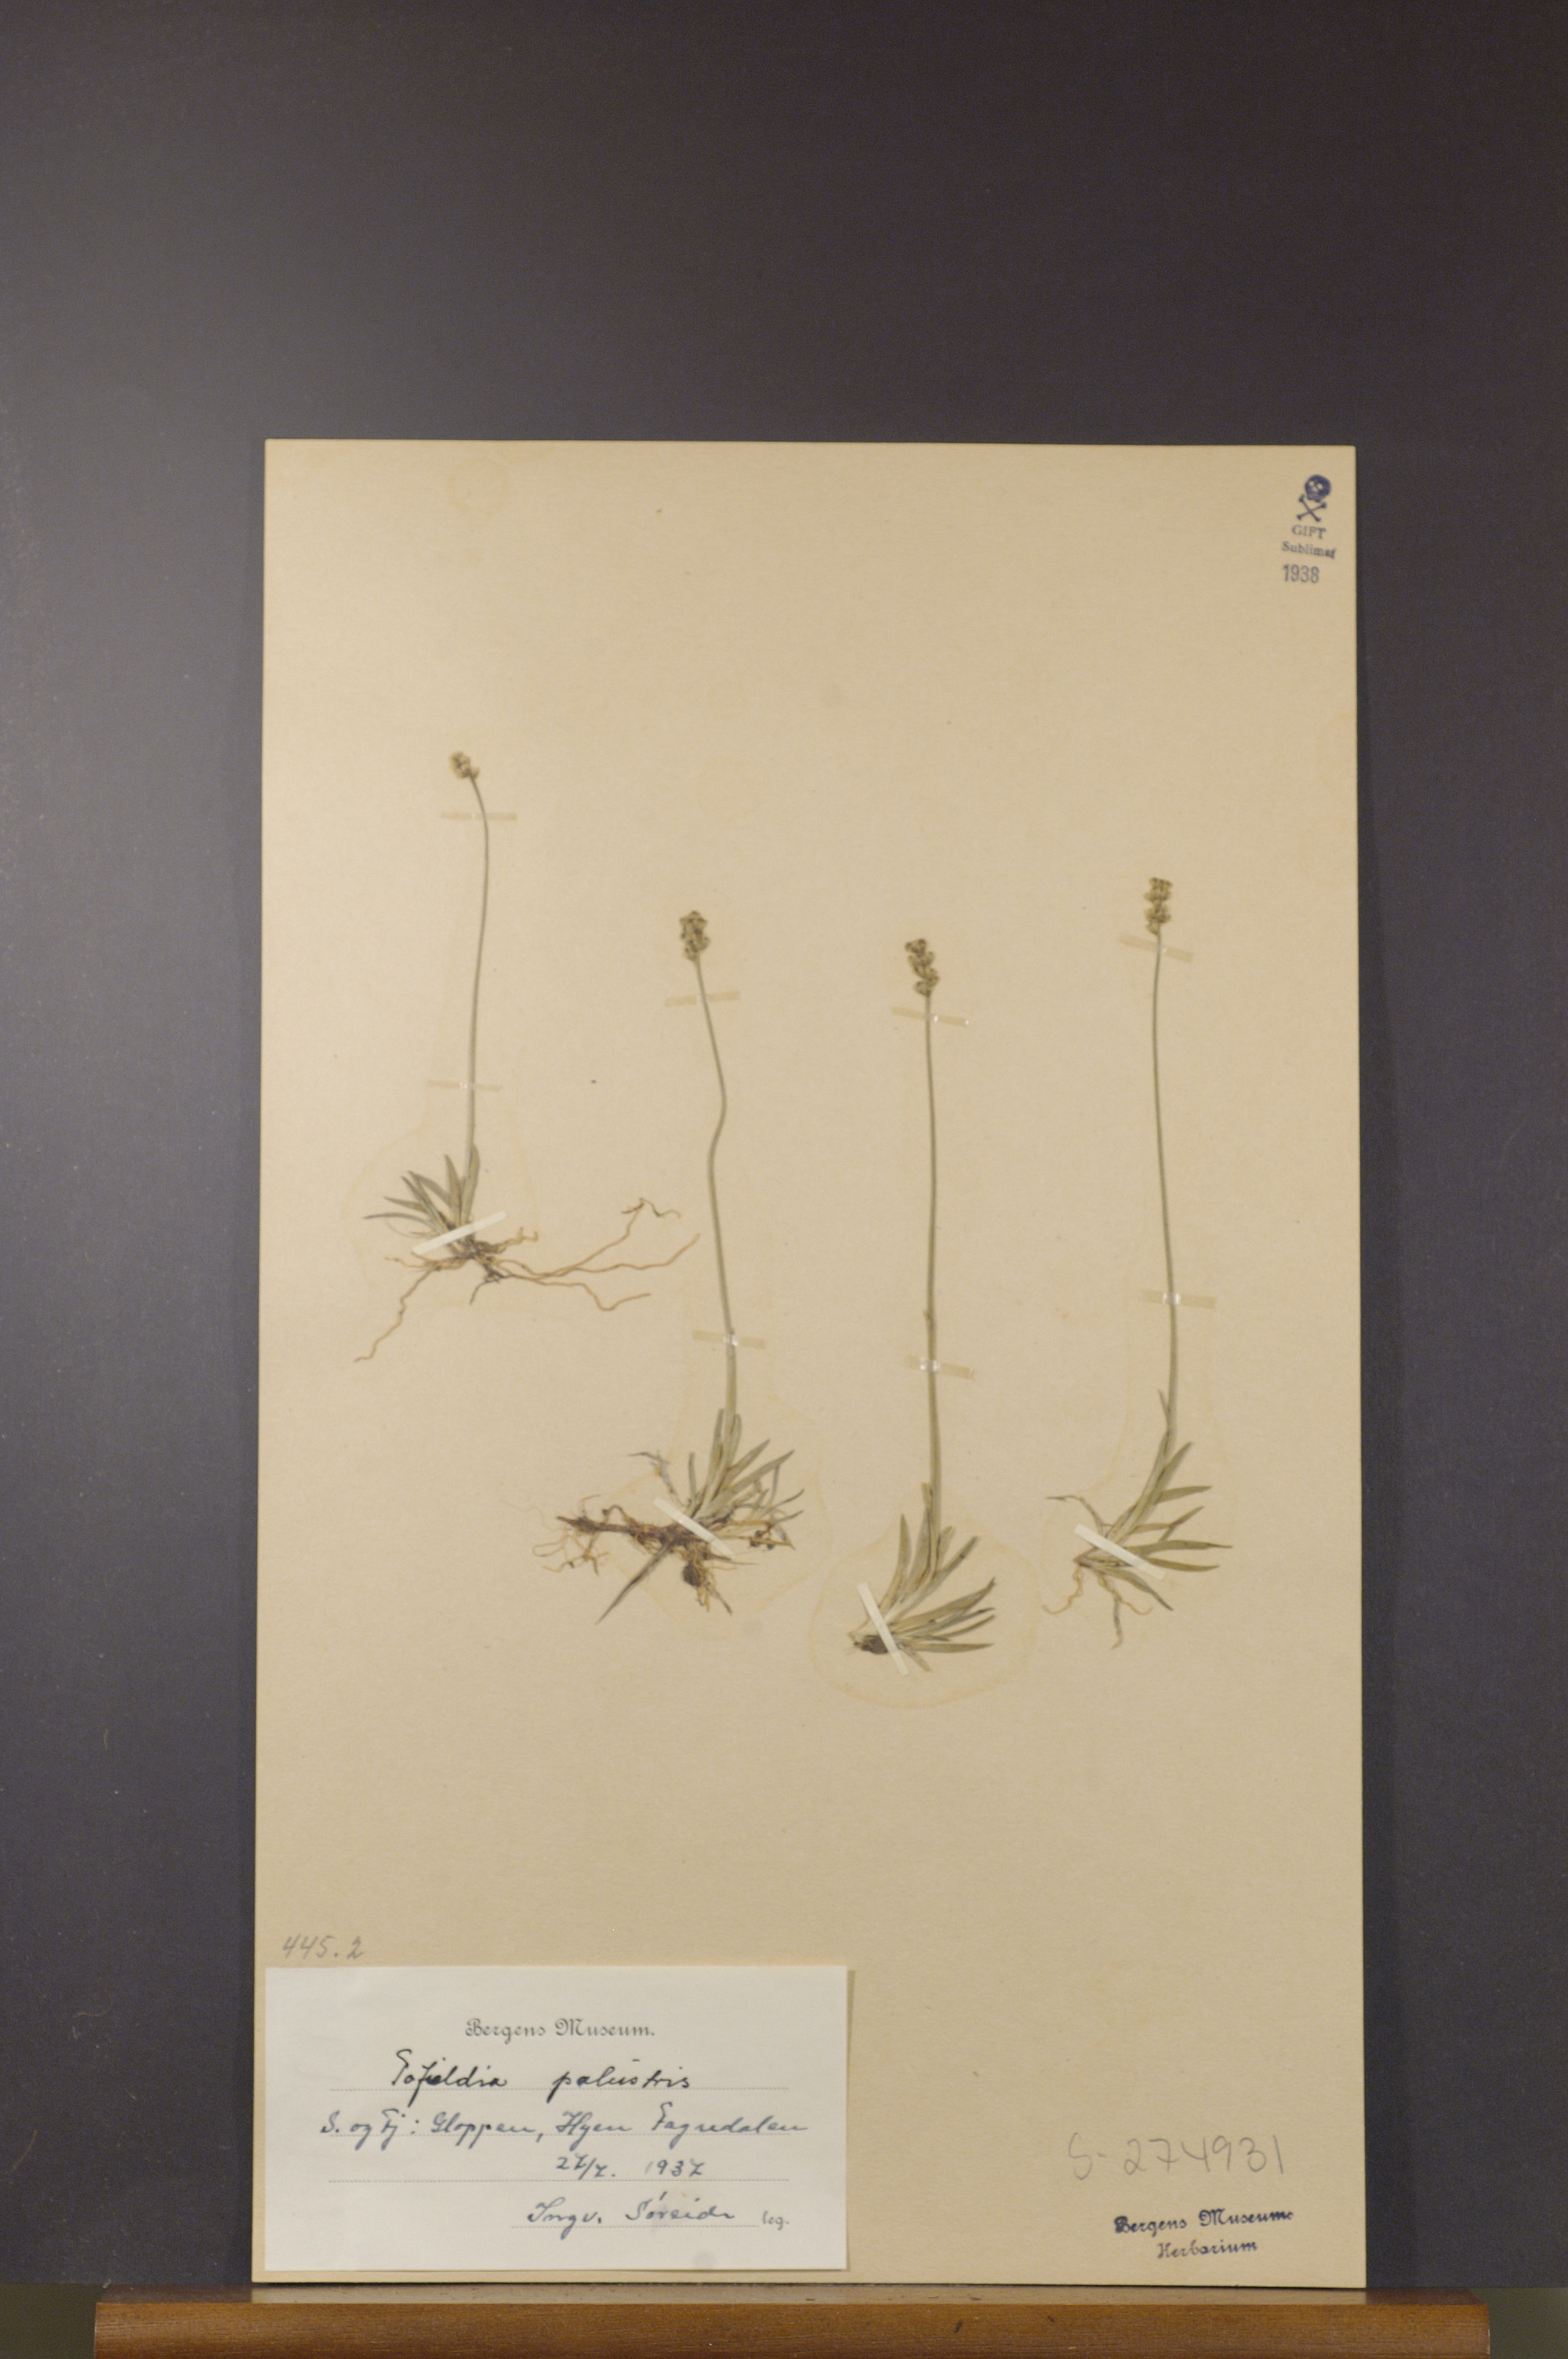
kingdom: Plantae
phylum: Tracheophyta
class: Liliopsida
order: Alismatales
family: Tofieldiaceae
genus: Tofieldia
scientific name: Tofieldia pusilla
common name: Scottish false asphodel
